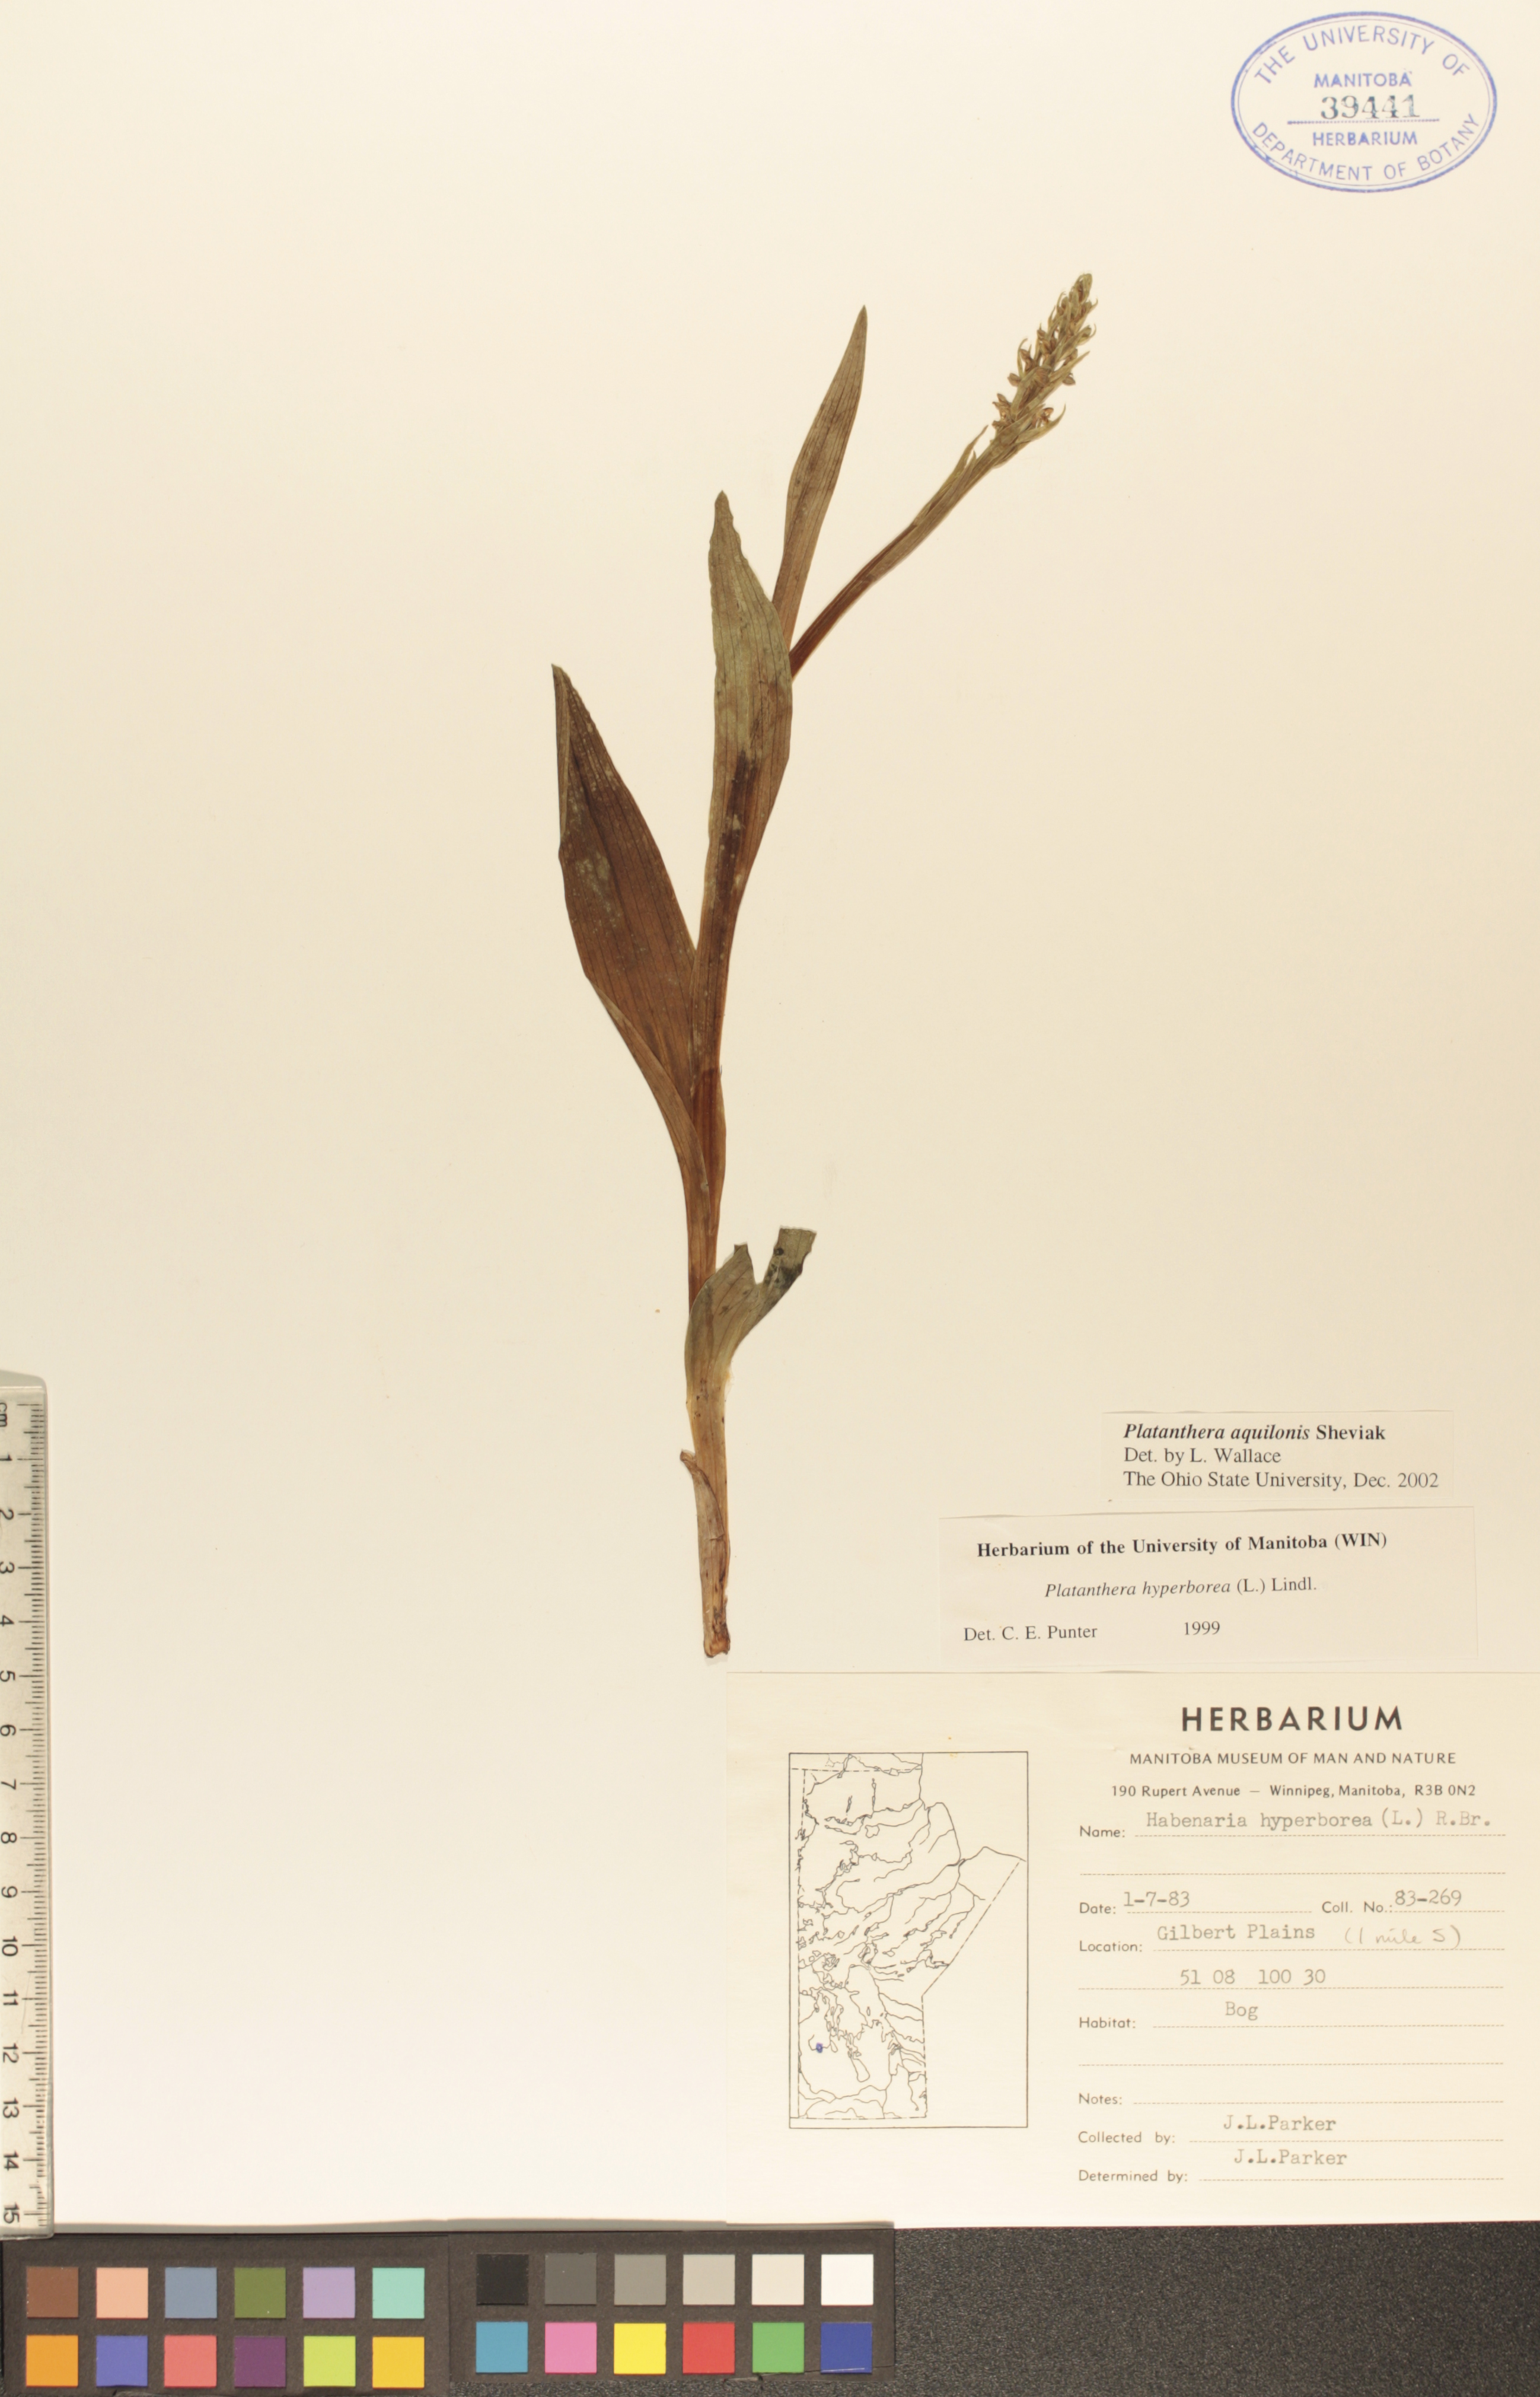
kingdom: Plantae
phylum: Tracheophyta
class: Liliopsida
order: Asparagales
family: Orchidaceae
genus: Platanthera
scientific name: Platanthera aquilonis
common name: Northern green orchid
